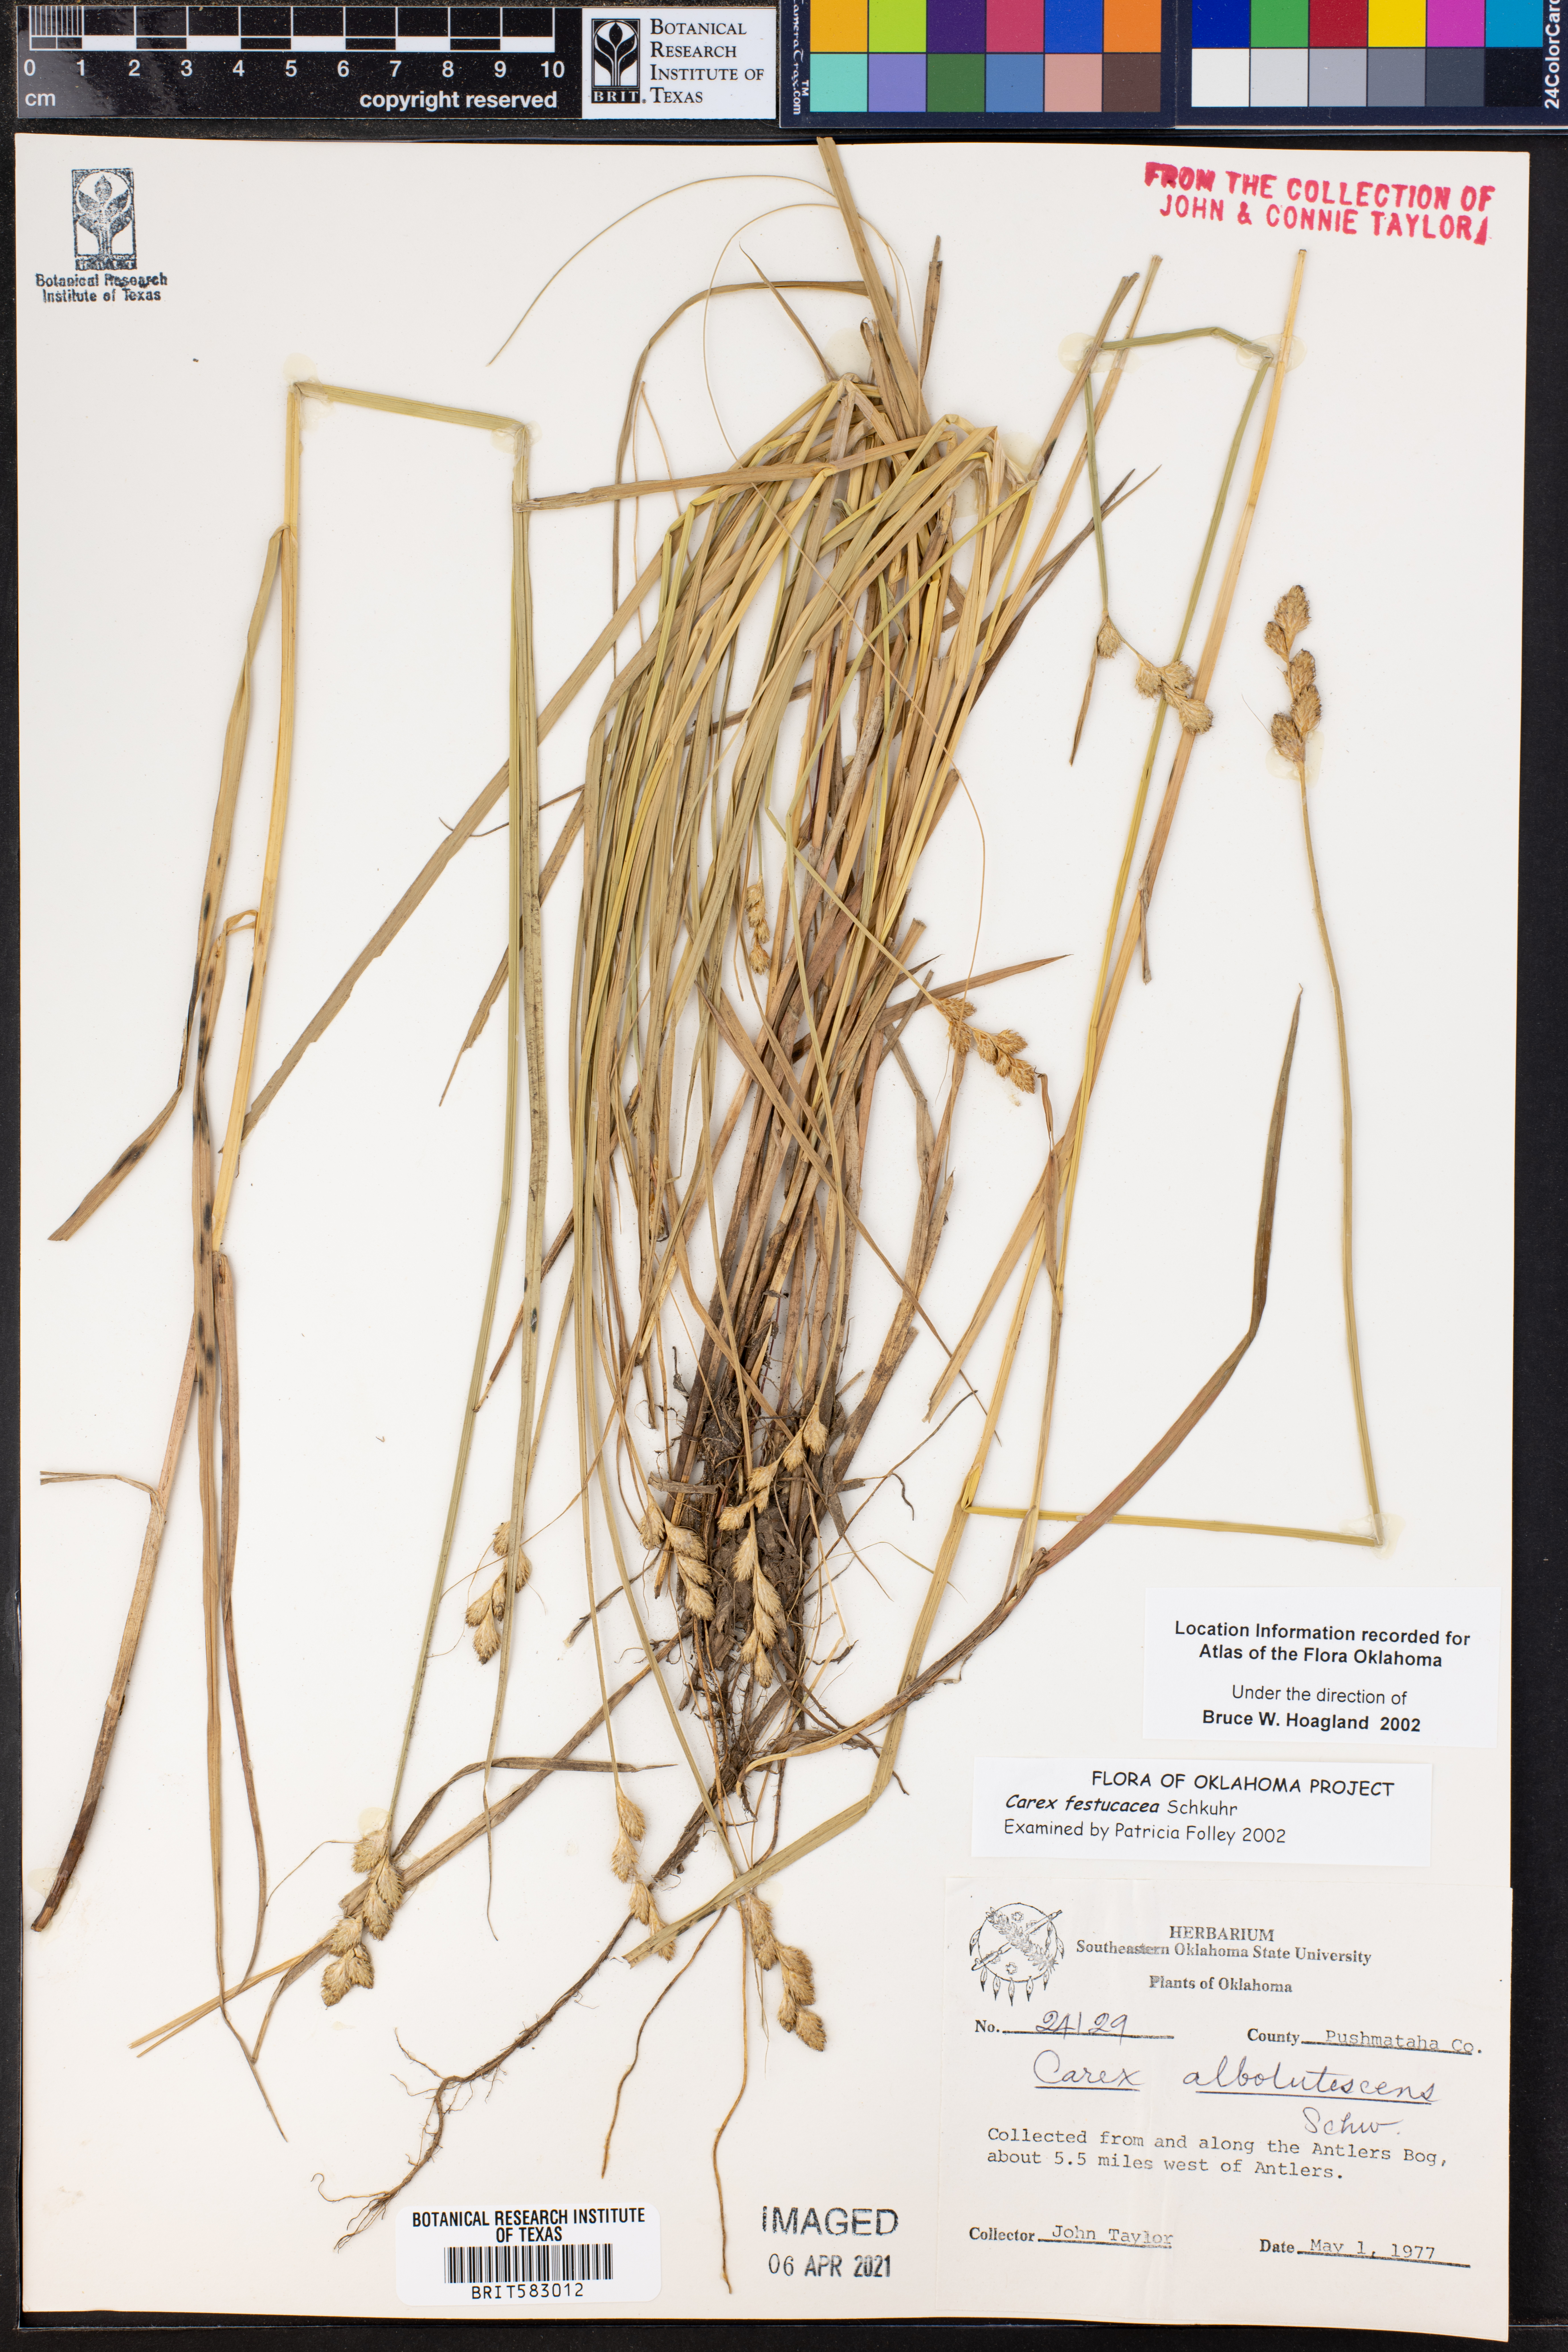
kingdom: Plantae
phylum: Tracheophyta
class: Liliopsida
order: Poales
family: Cyperaceae
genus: Carex
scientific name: Carex festucacea
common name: Fescue oval sedge
